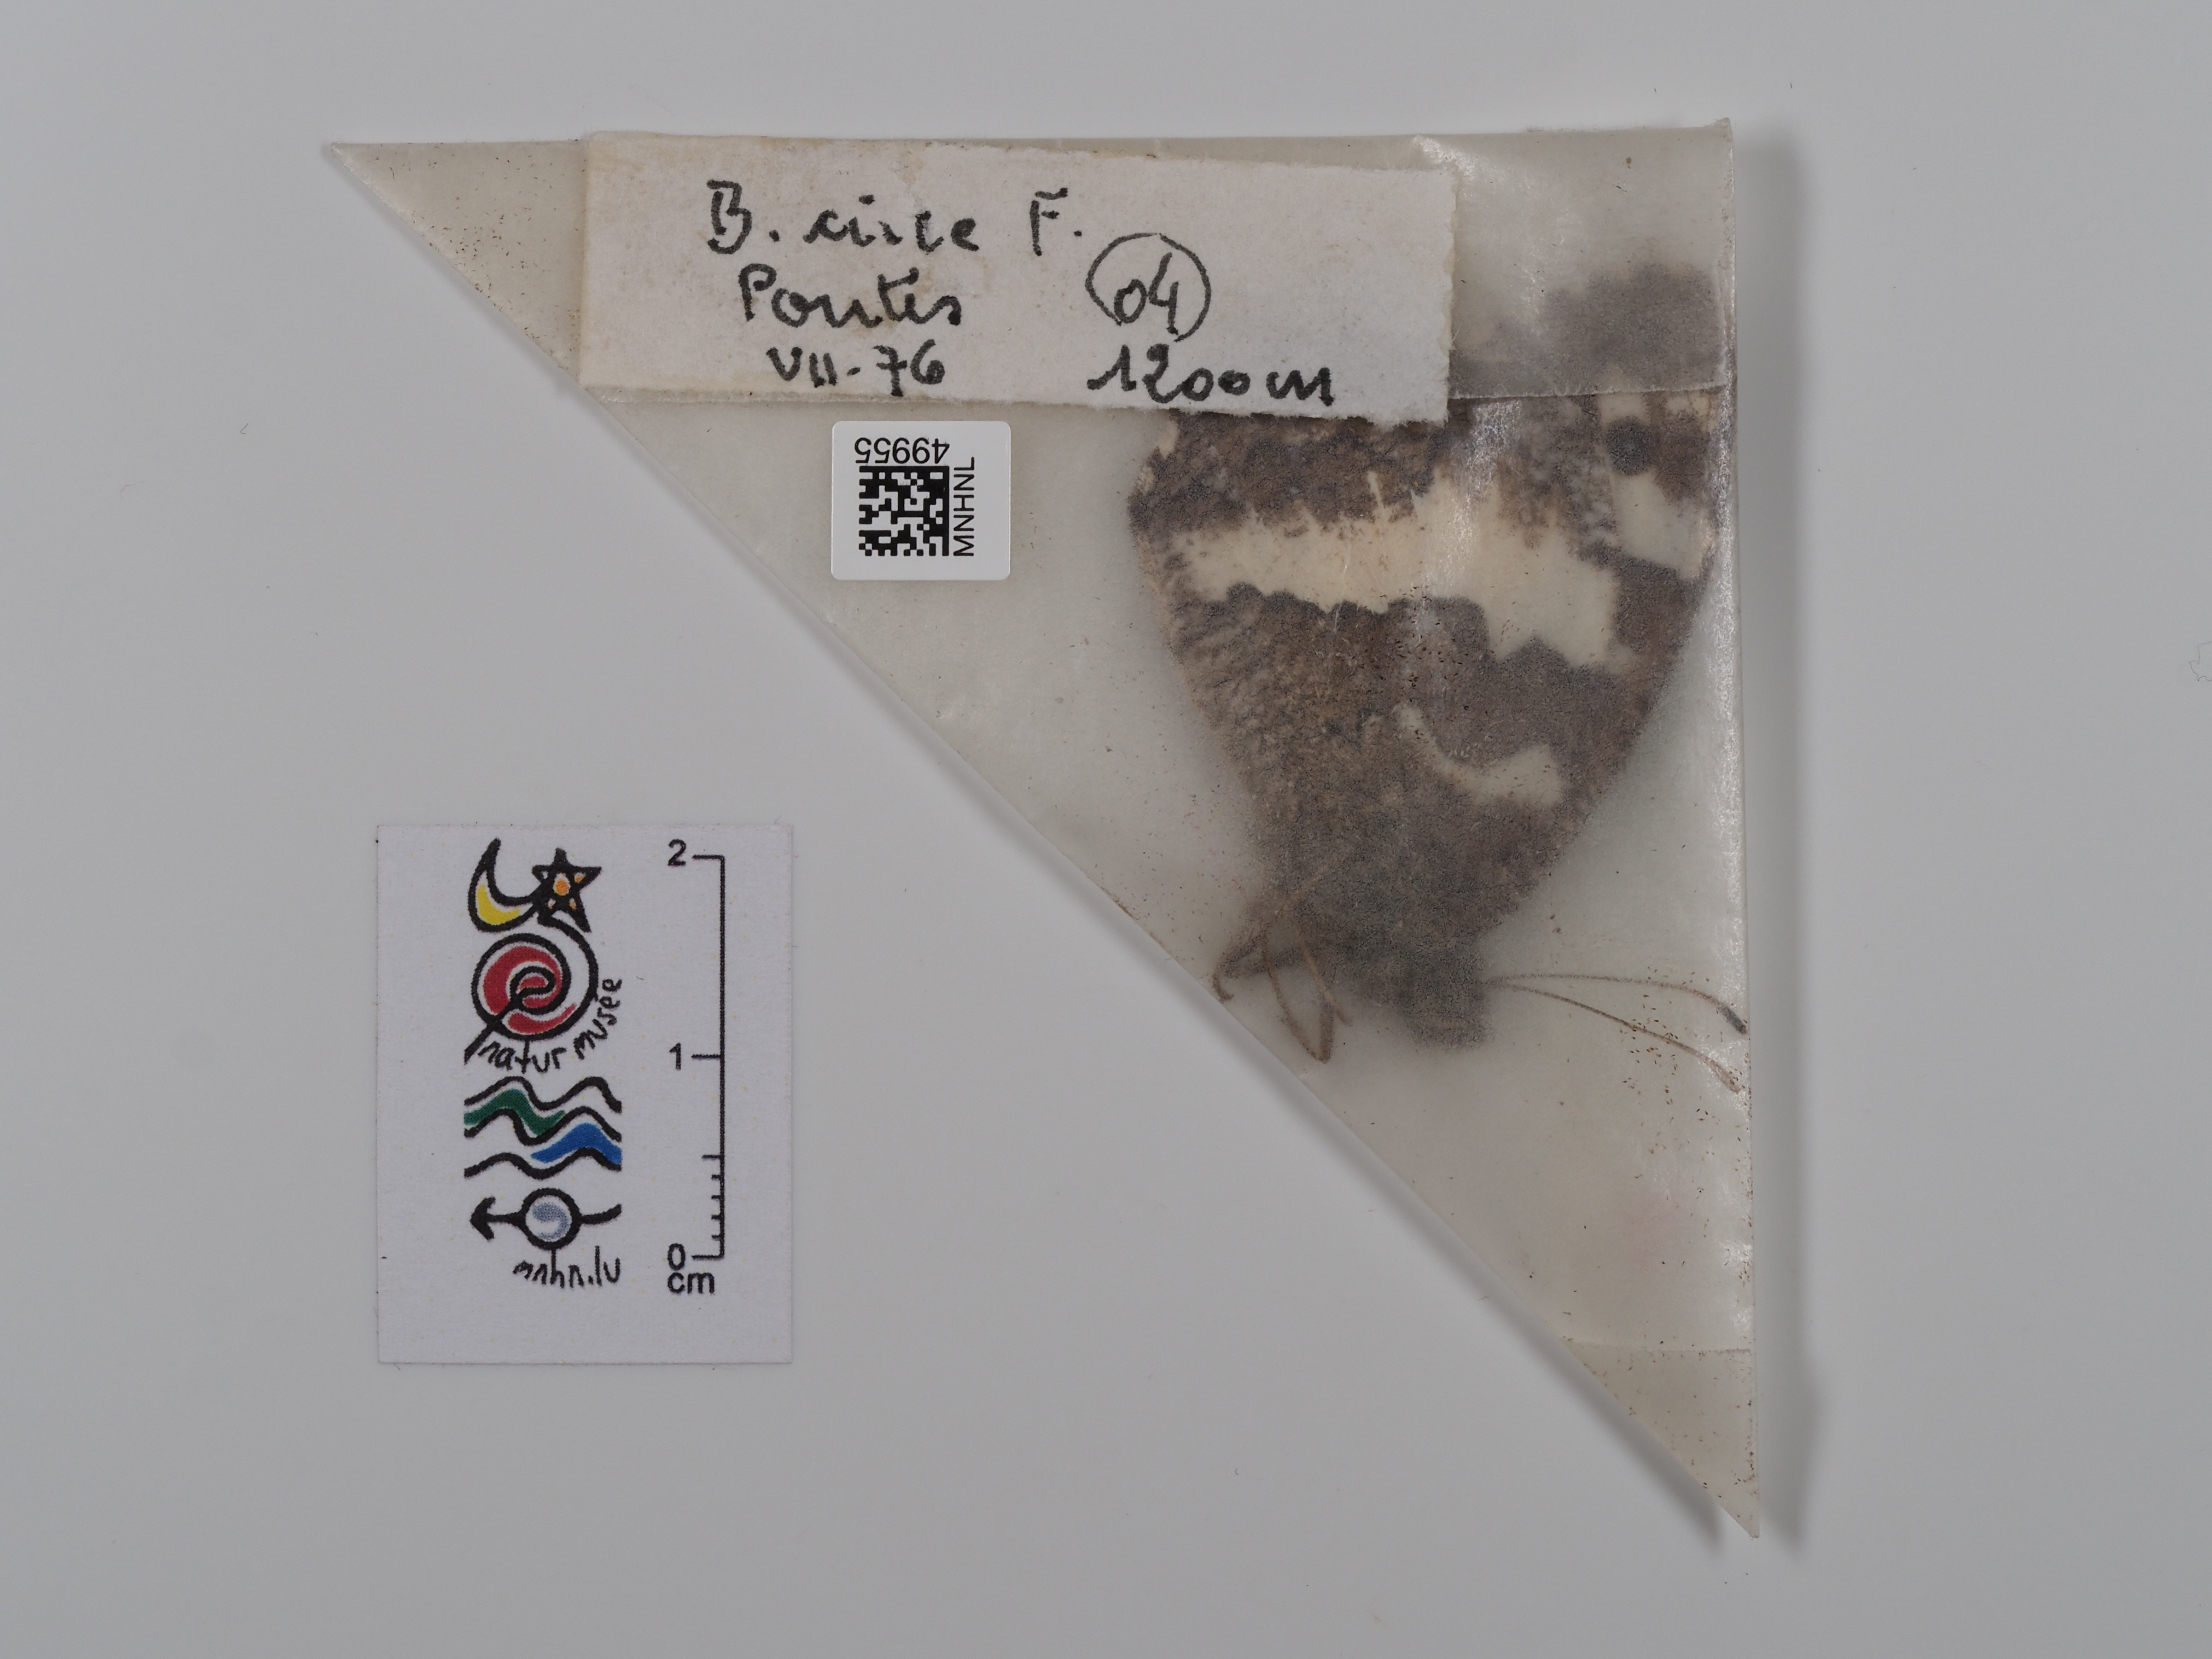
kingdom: Animalia
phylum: Arthropoda
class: Insecta
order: Lepidoptera
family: Lycaenidae
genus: Loweia
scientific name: Loweia tityrus
